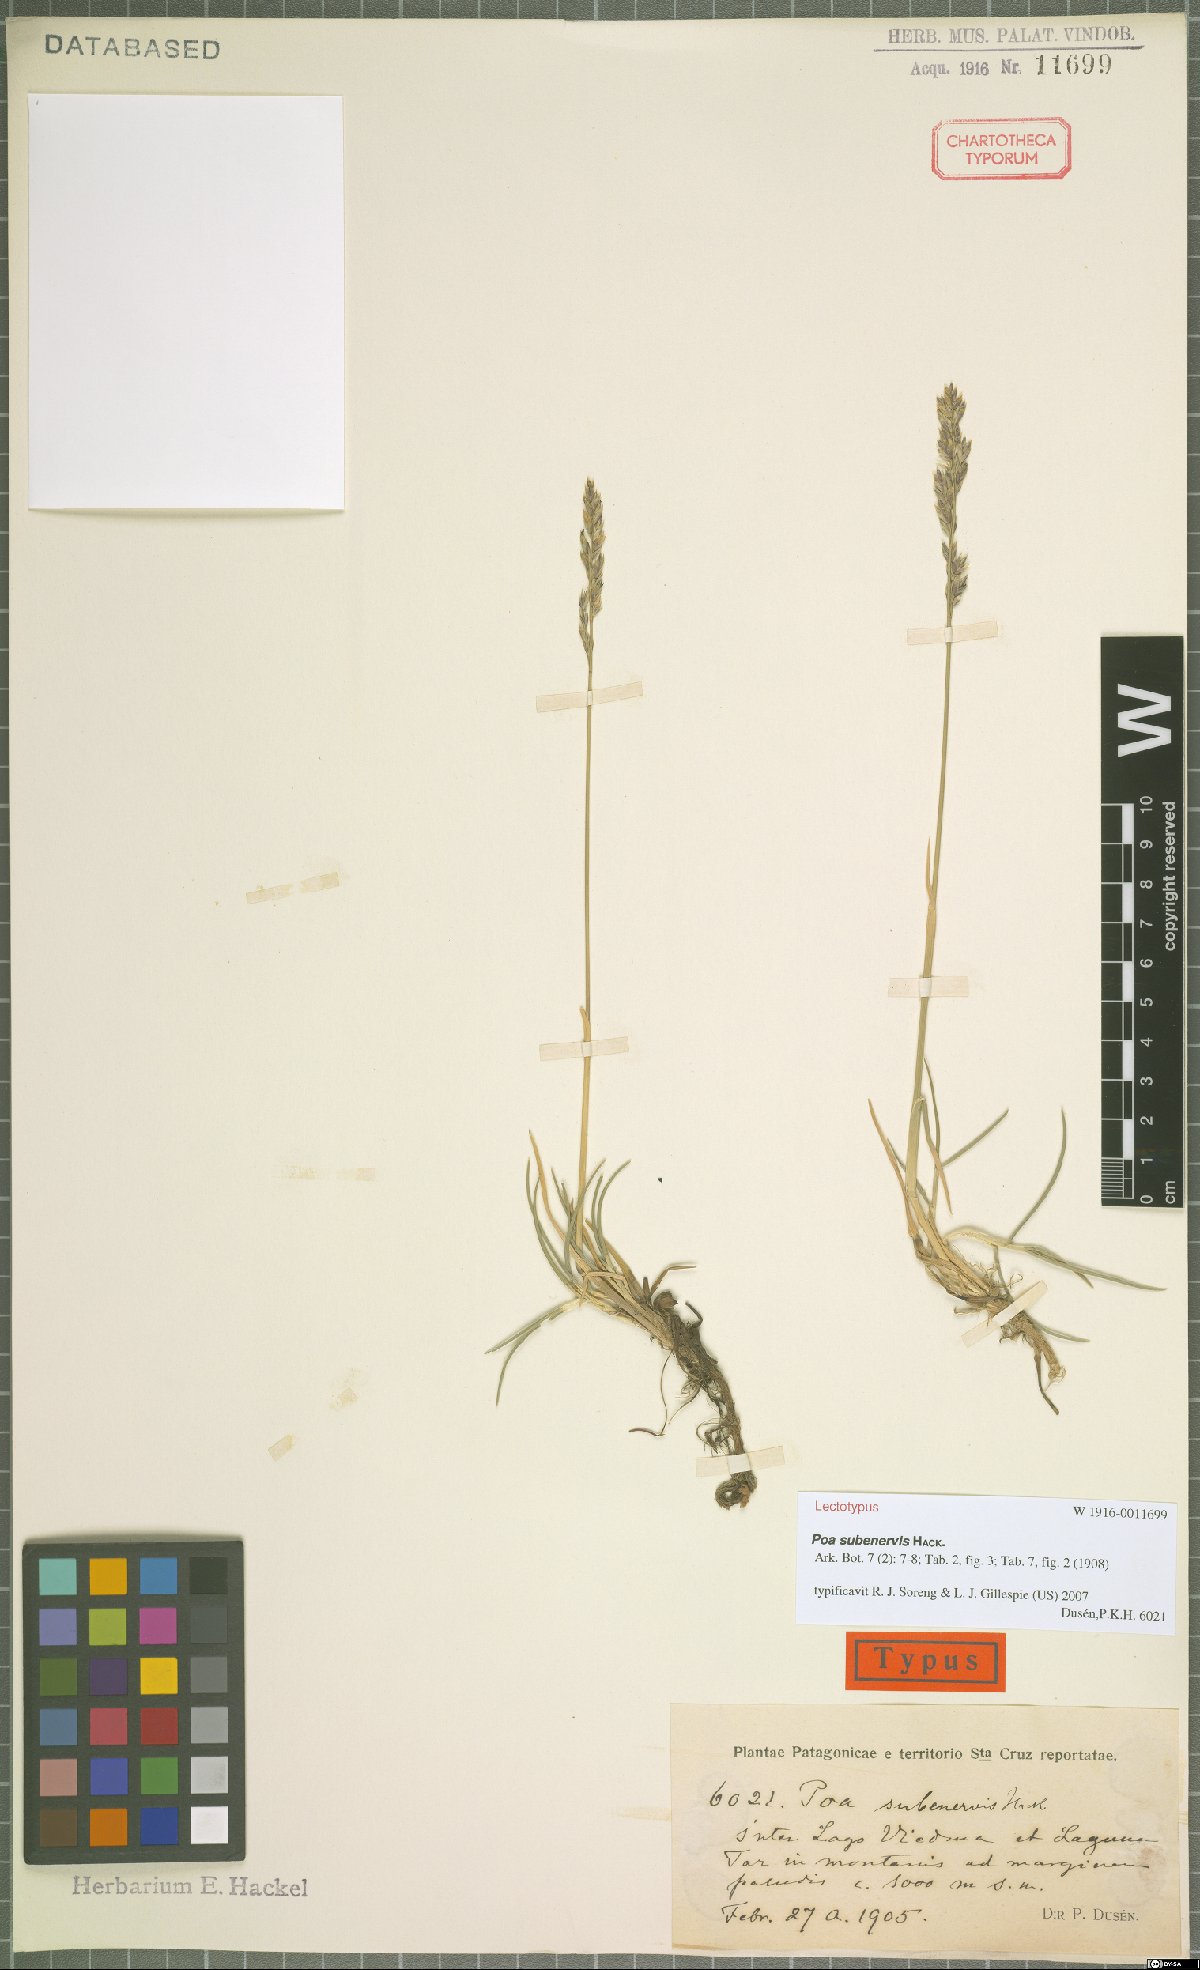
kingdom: Plantae
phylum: Tracheophyta
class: Liliopsida
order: Poales
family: Poaceae
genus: Nicoraepoa
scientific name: Nicoraepoa subenervis
